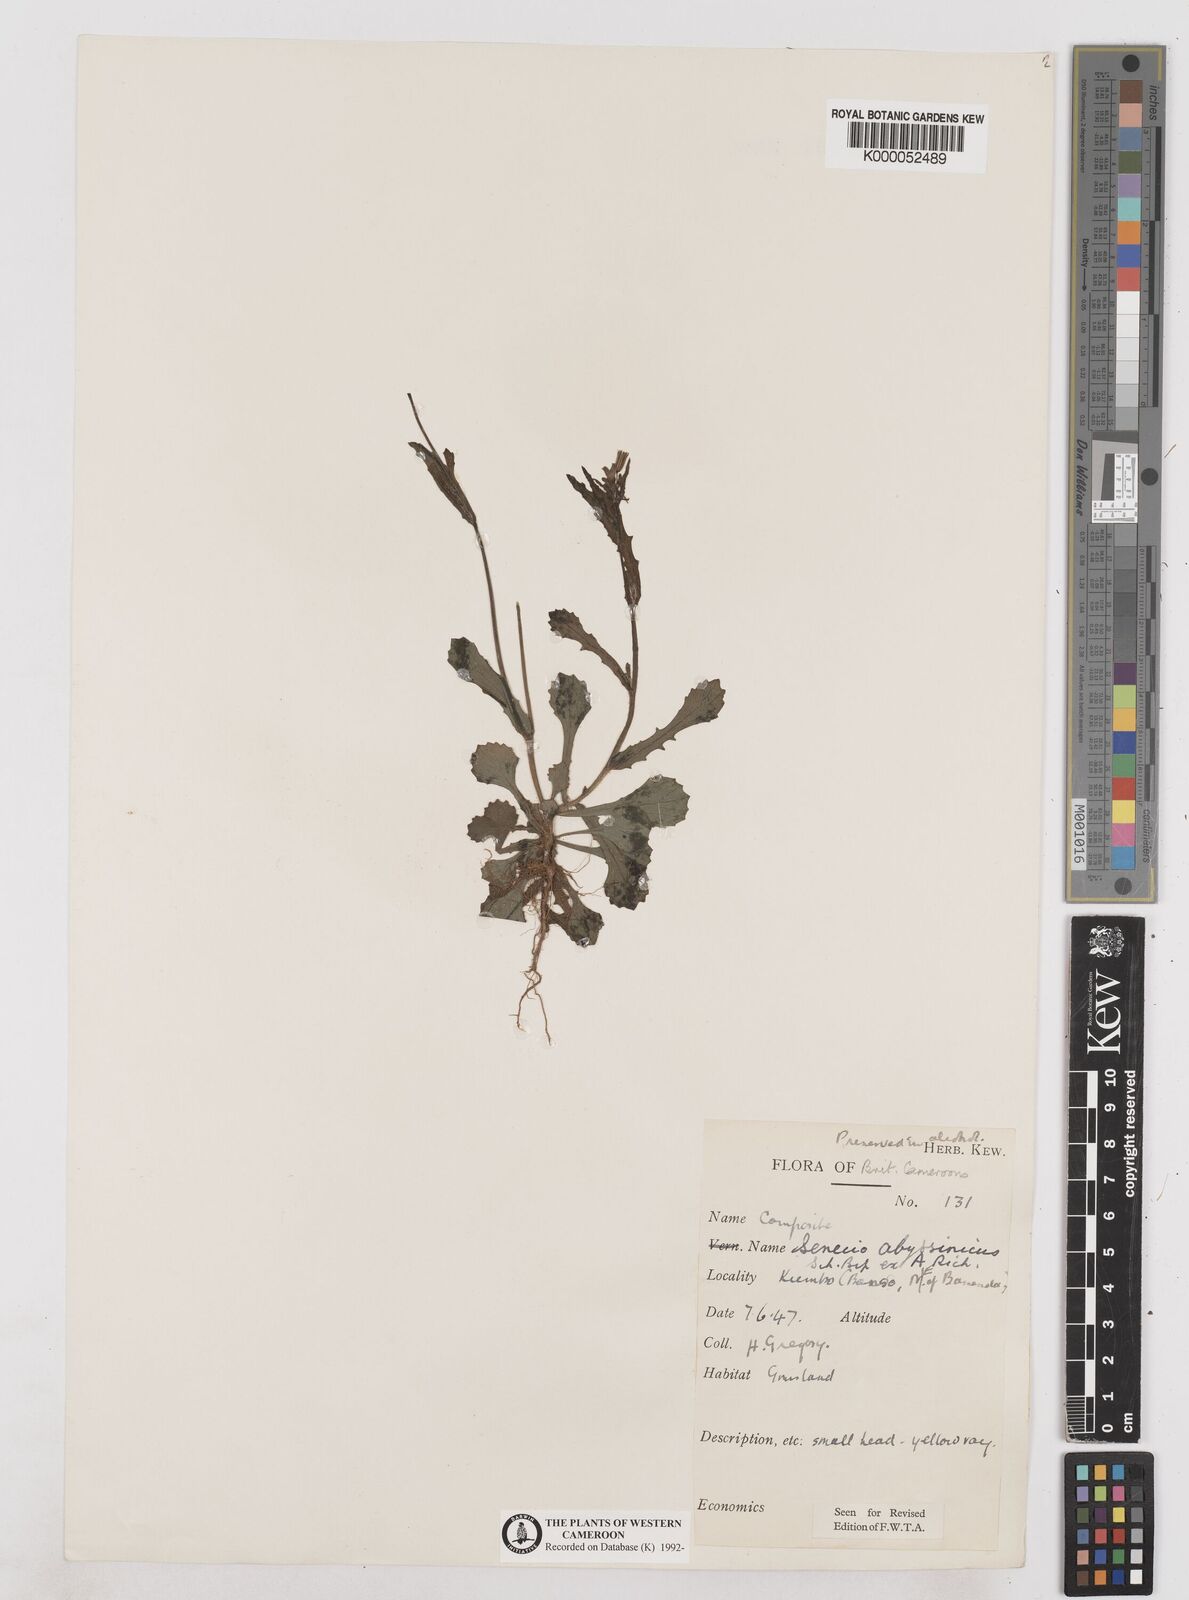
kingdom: Plantae
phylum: Tracheophyta
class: Magnoliopsida
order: Asterales
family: Asteraceae
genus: Emilia
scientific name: Emilia abyssinica
